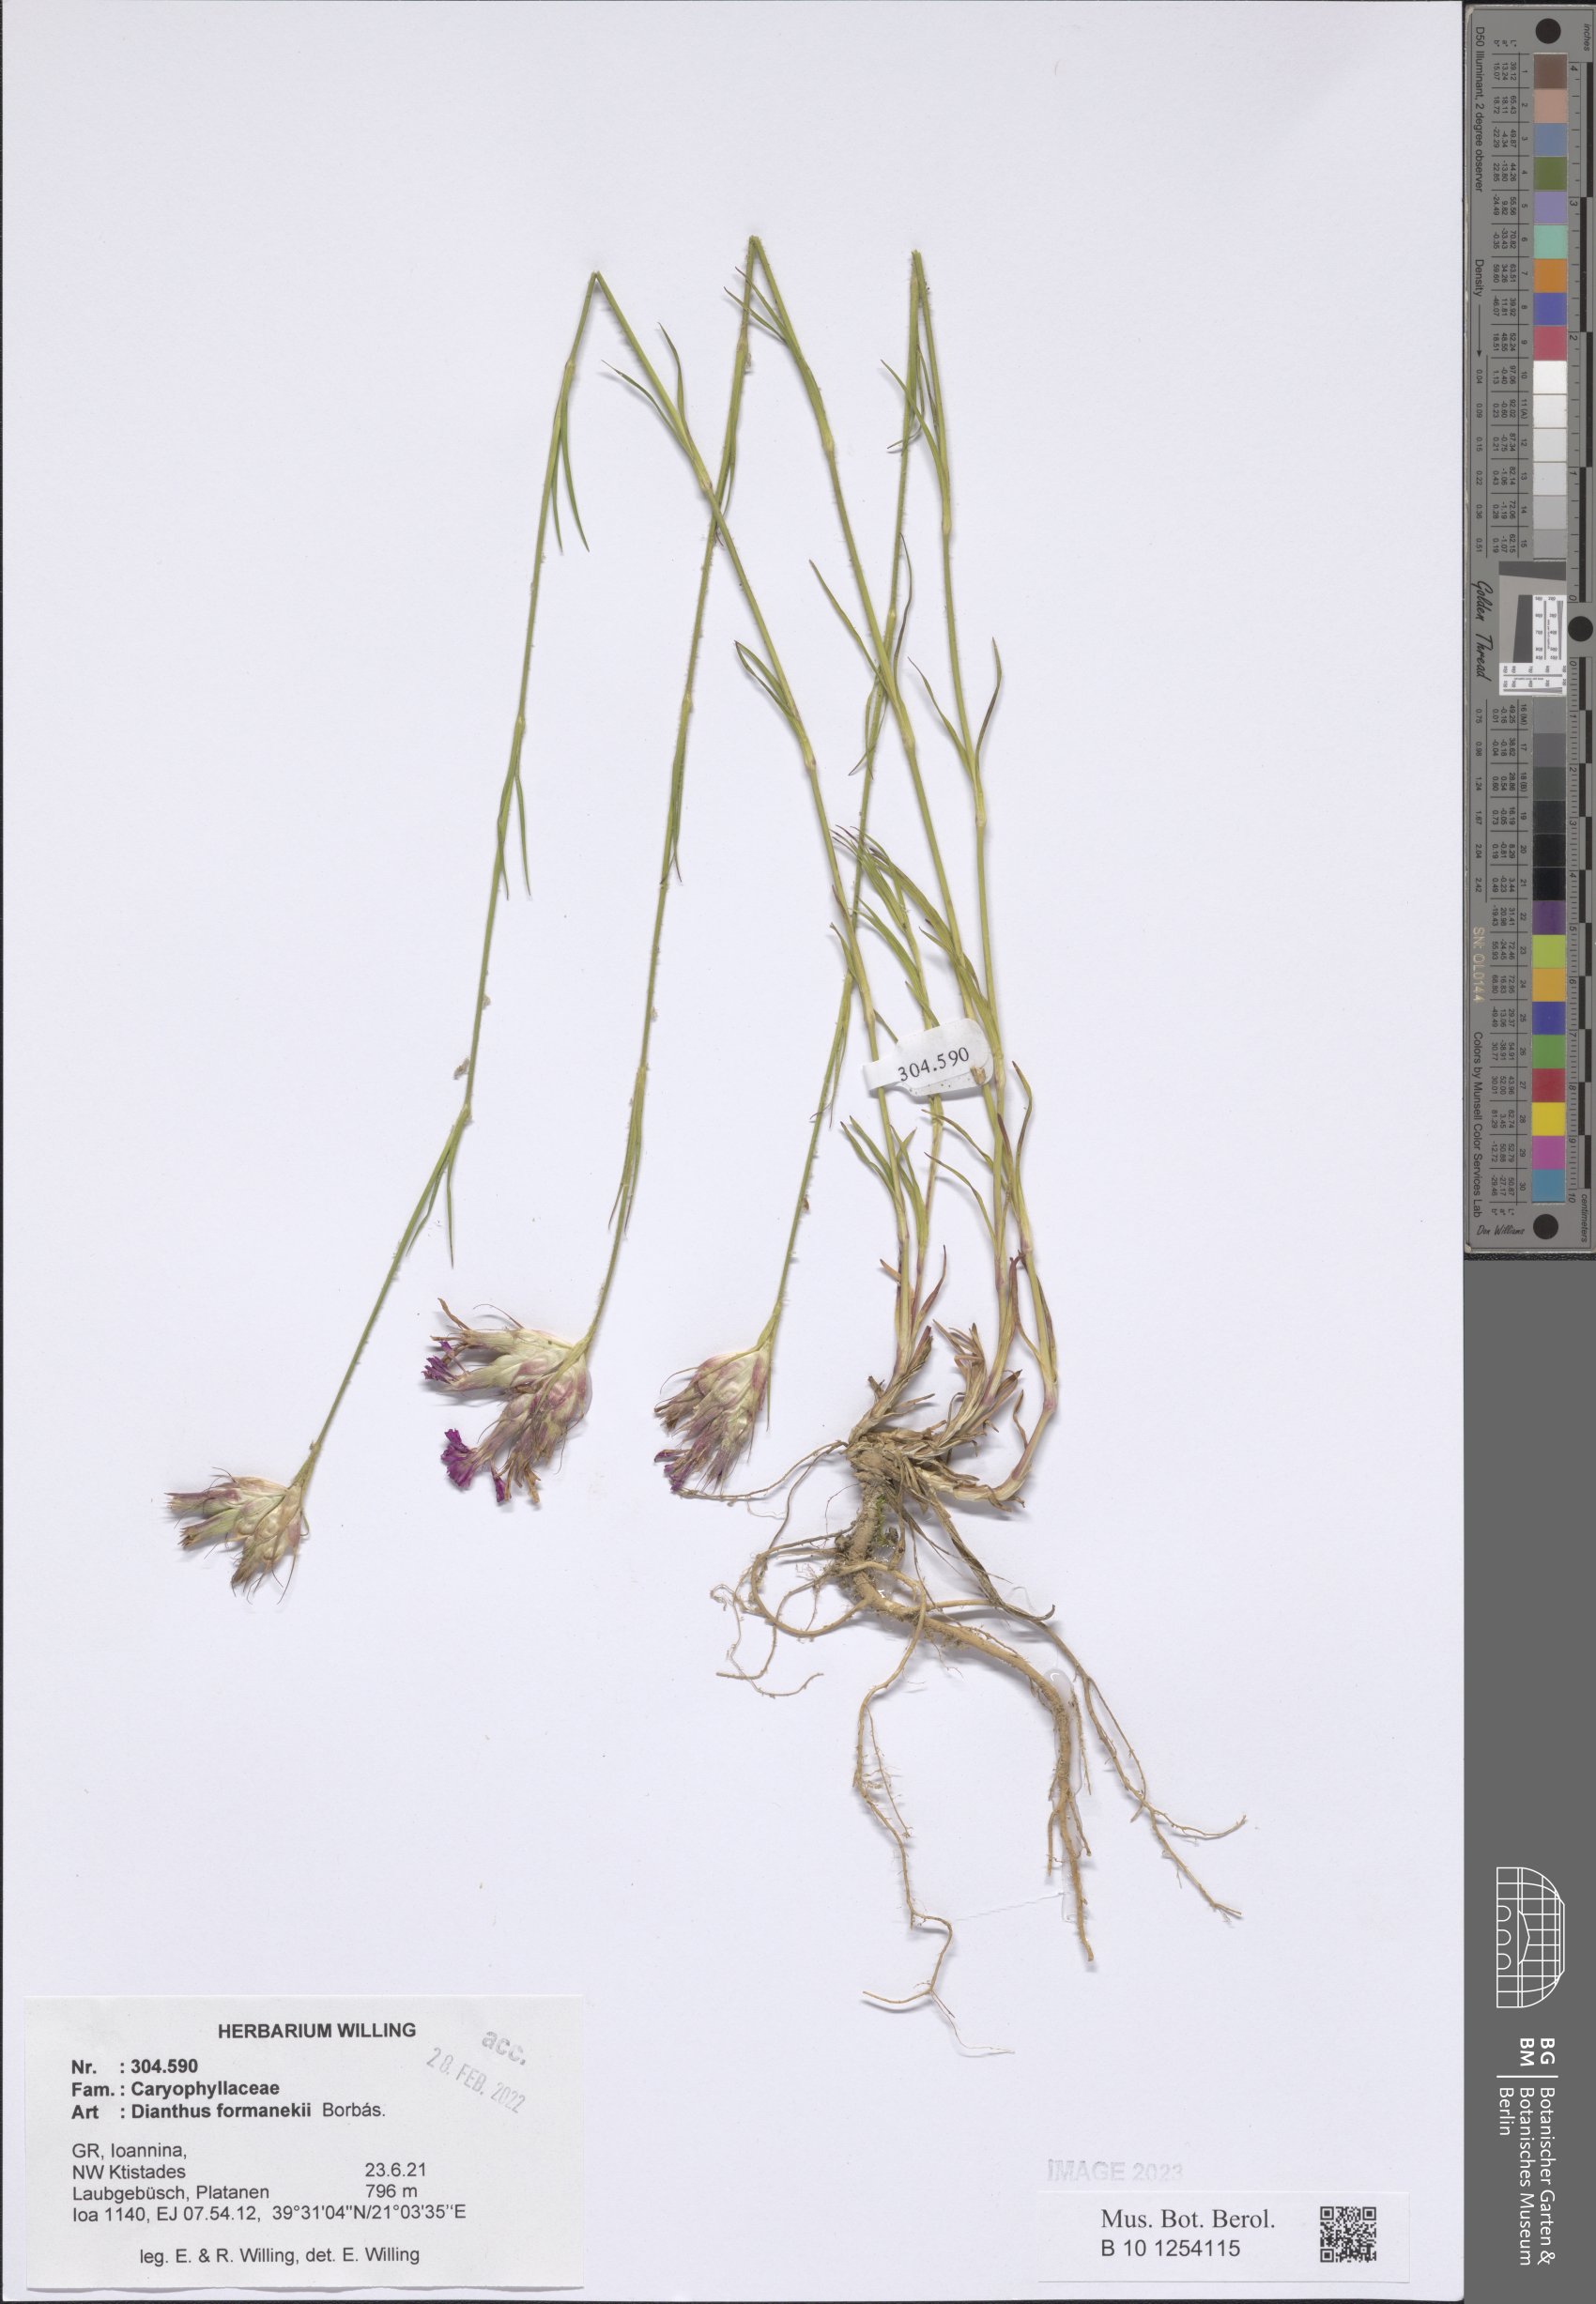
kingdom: Plantae
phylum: Tracheophyta
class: Magnoliopsida
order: Caryophyllales
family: Caryophyllaceae
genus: Dianthus
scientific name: Dianthus formanekii
